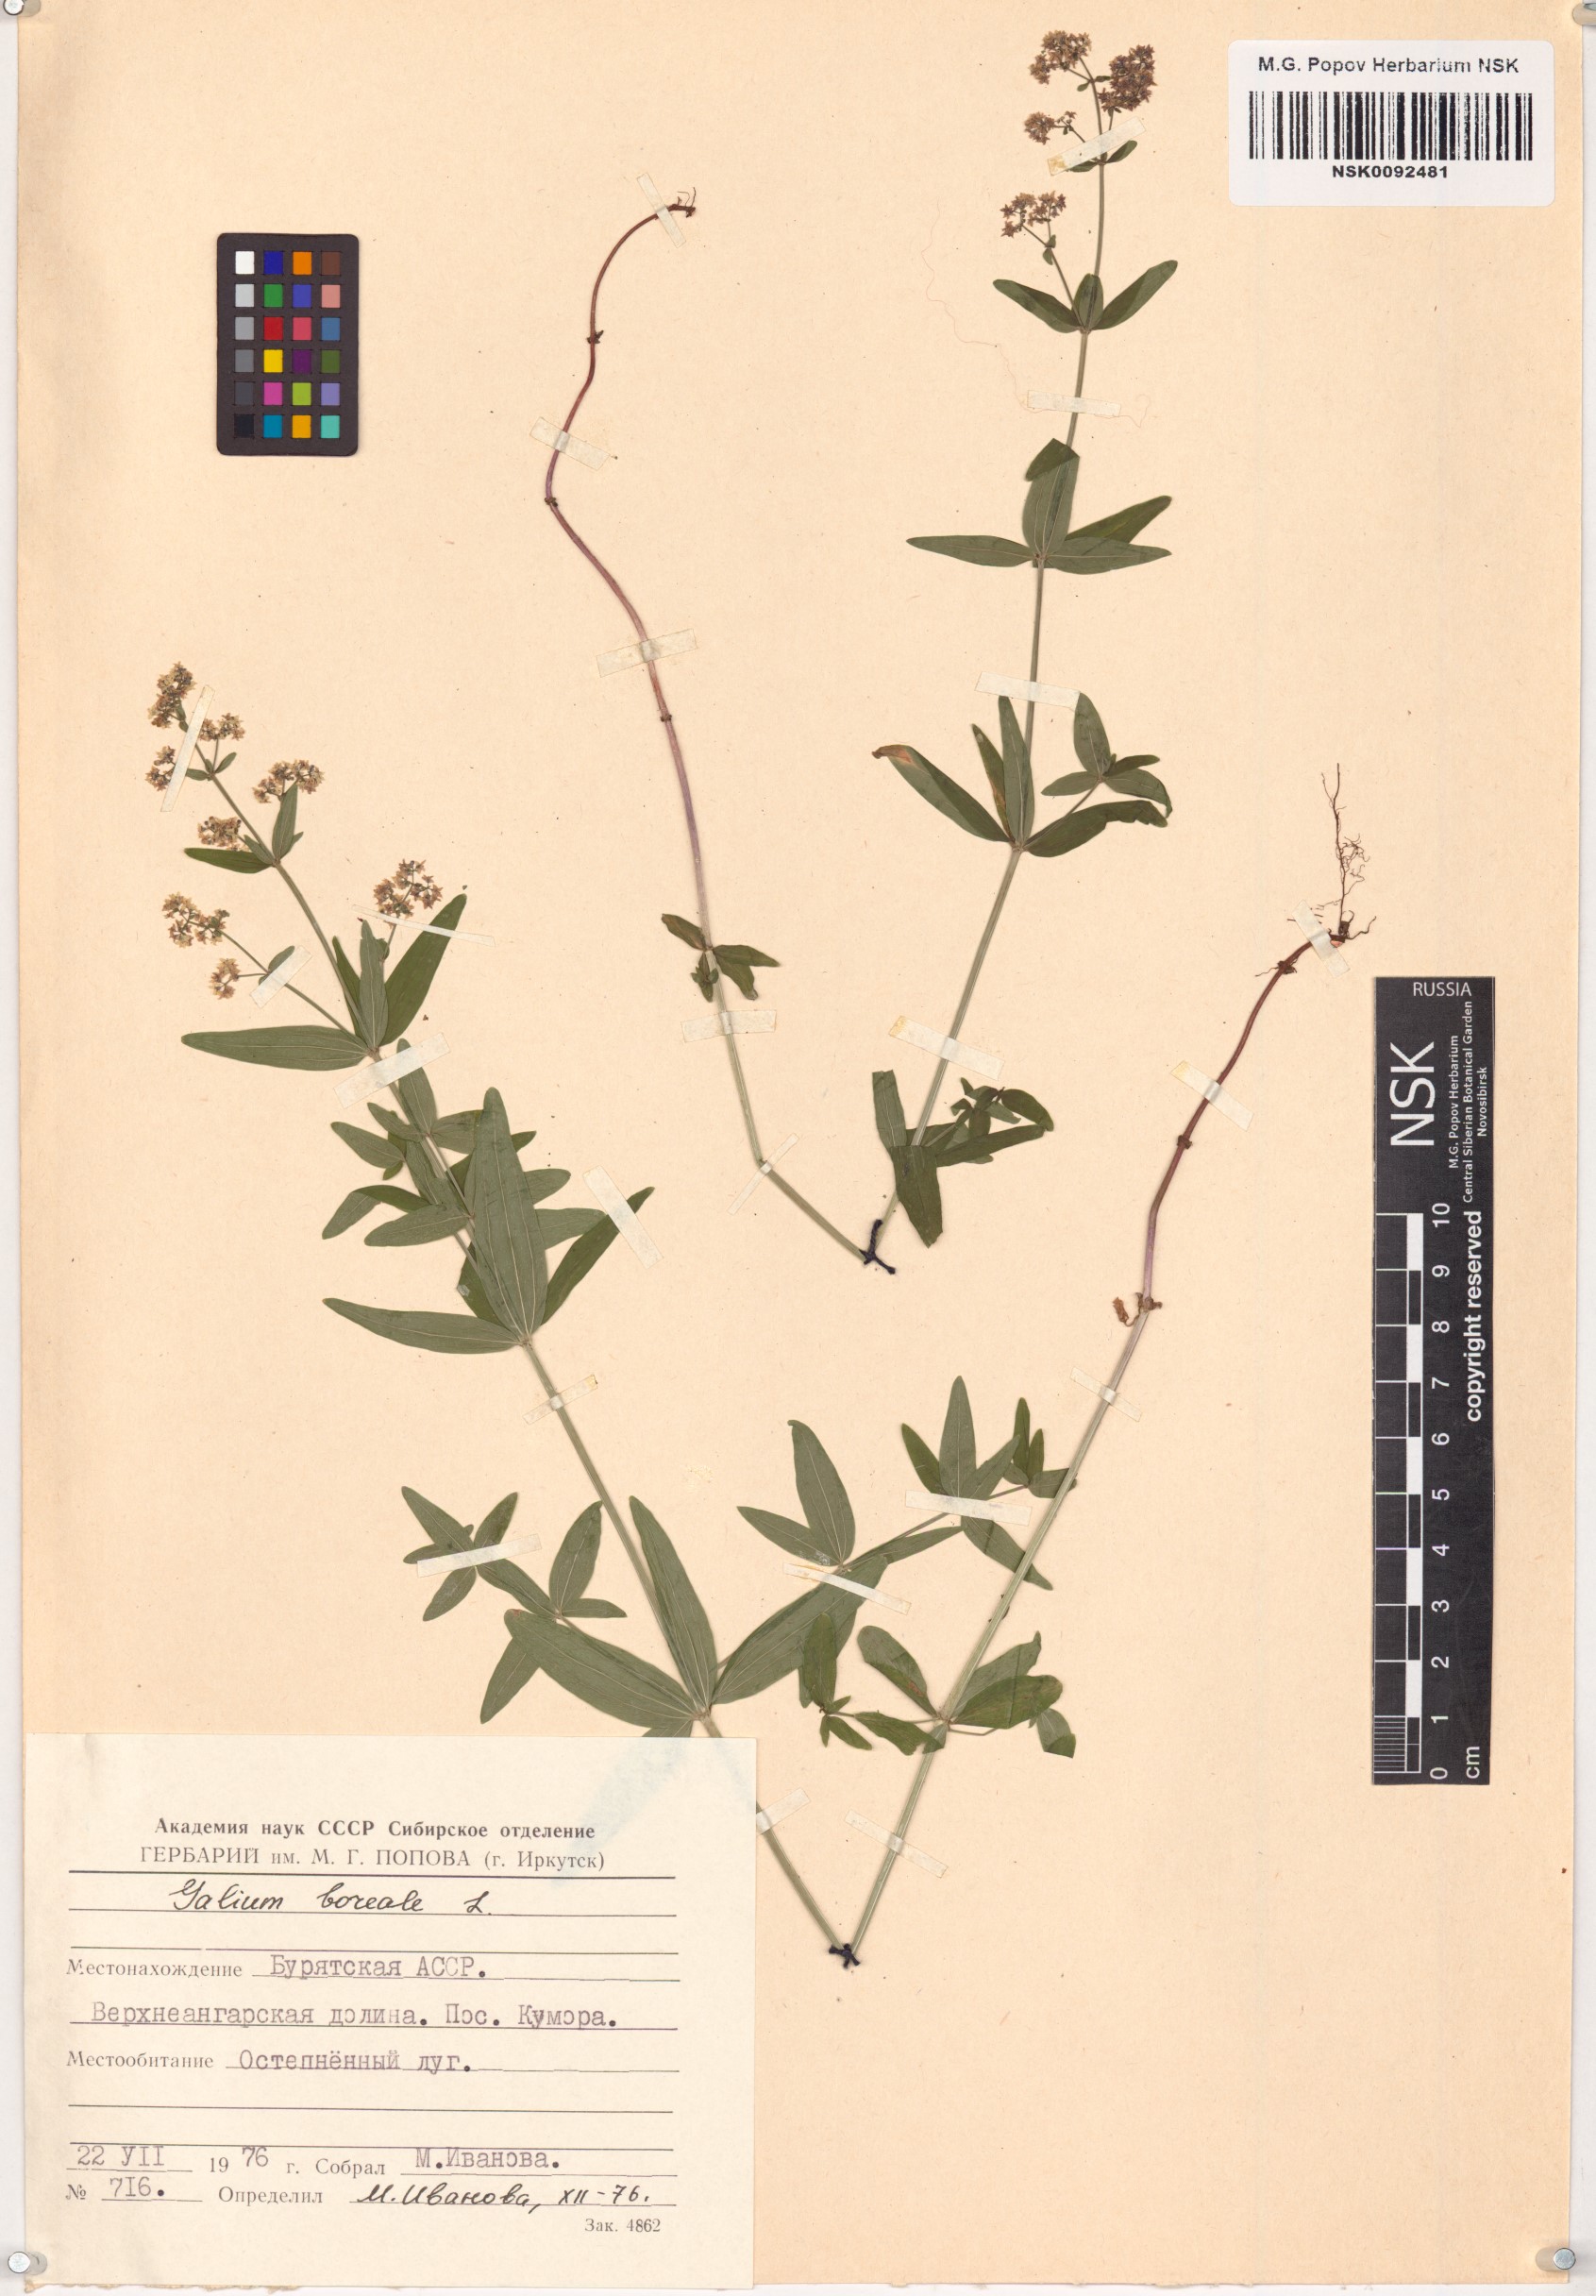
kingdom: Plantae
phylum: Tracheophyta
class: Magnoliopsida
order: Gentianales
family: Rubiaceae
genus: Galium
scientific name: Galium boreale
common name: Northern bedstraw
